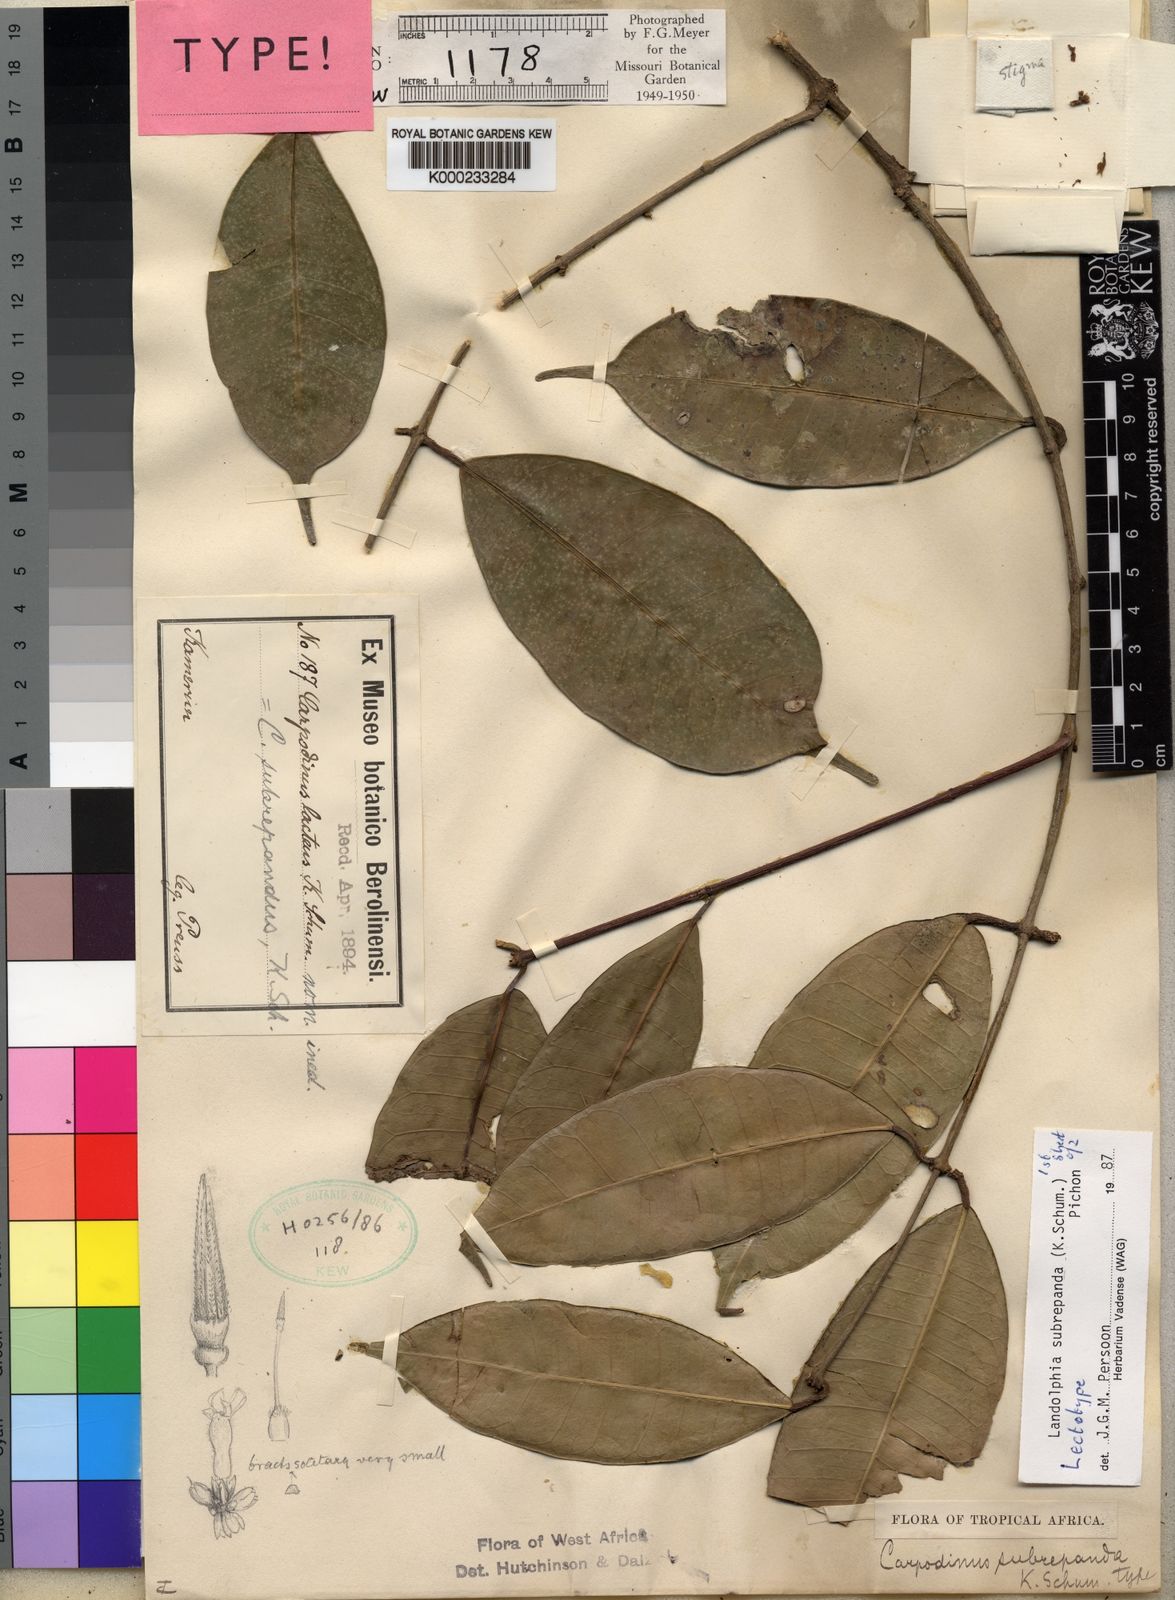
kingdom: Plantae
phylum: Tracheophyta
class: Magnoliopsida
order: Gentianales
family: Apocynaceae
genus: Landolphia
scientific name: Landolphia subrepanda
